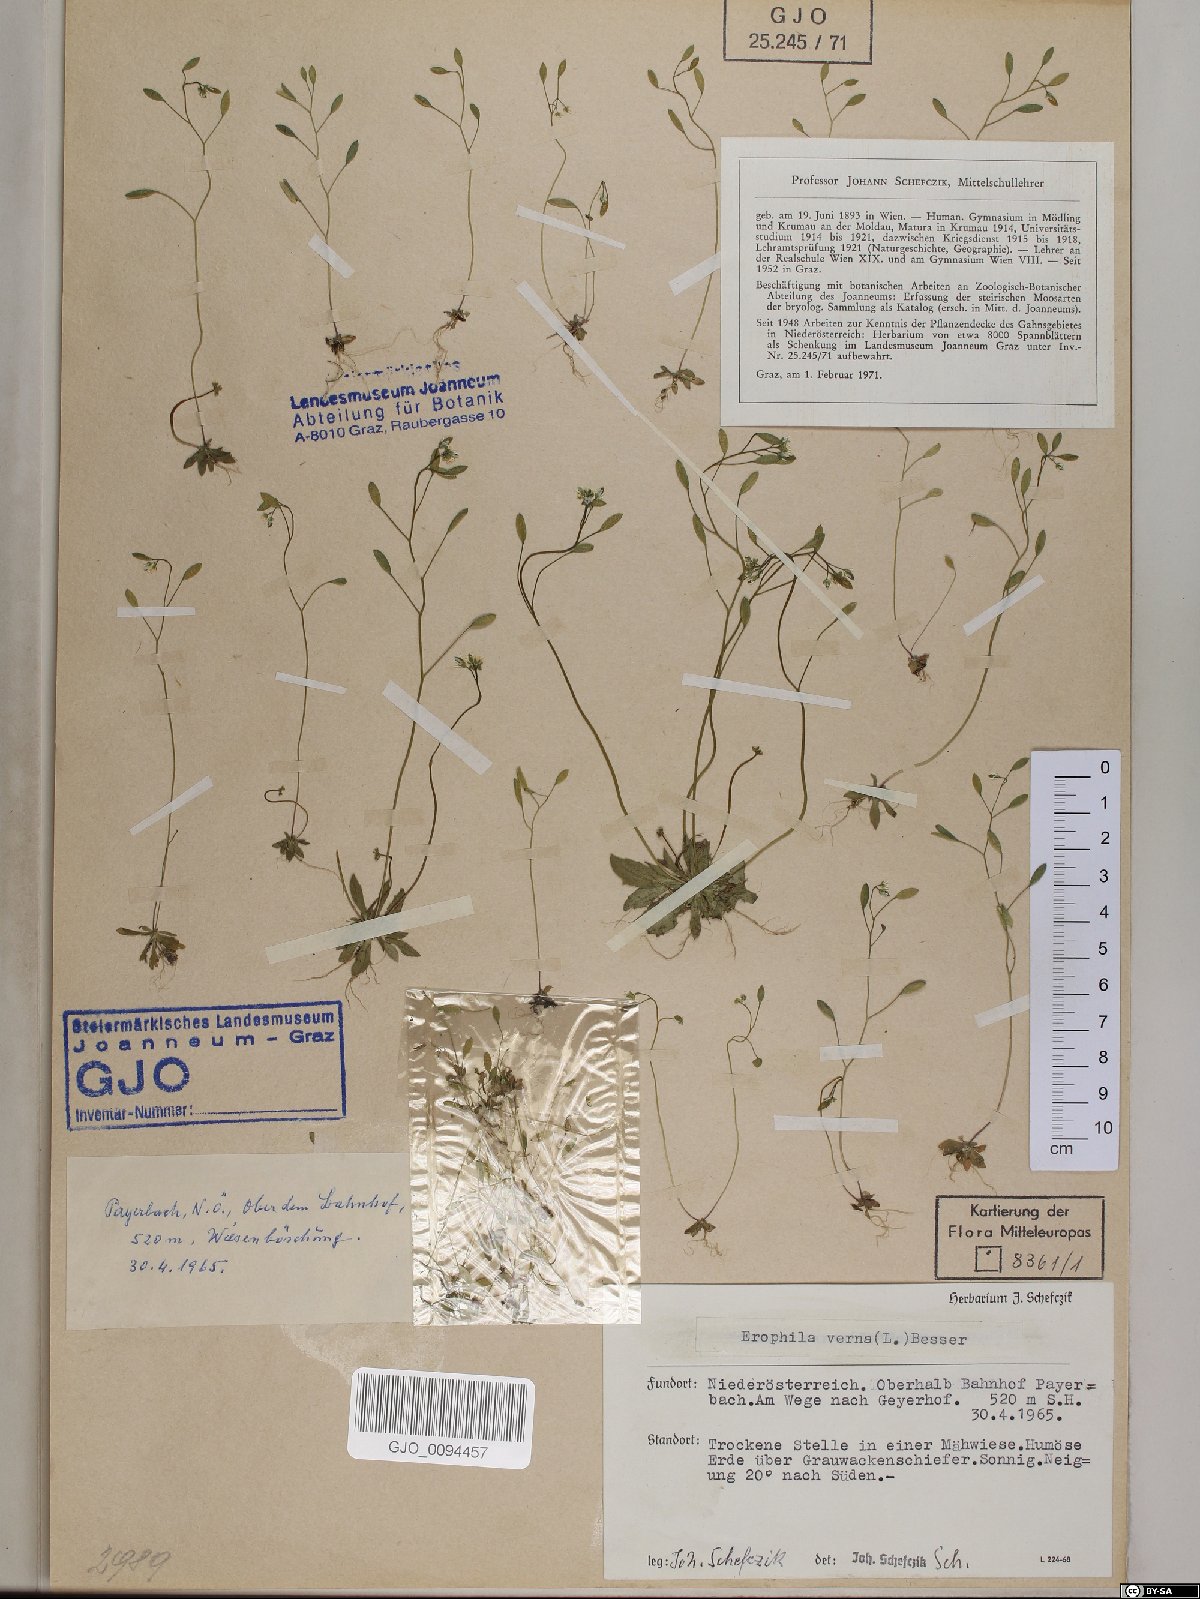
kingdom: Plantae
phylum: Tracheophyta
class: Magnoliopsida
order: Brassicales
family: Brassicaceae
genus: Draba
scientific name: Draba verna
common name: Spring draba
